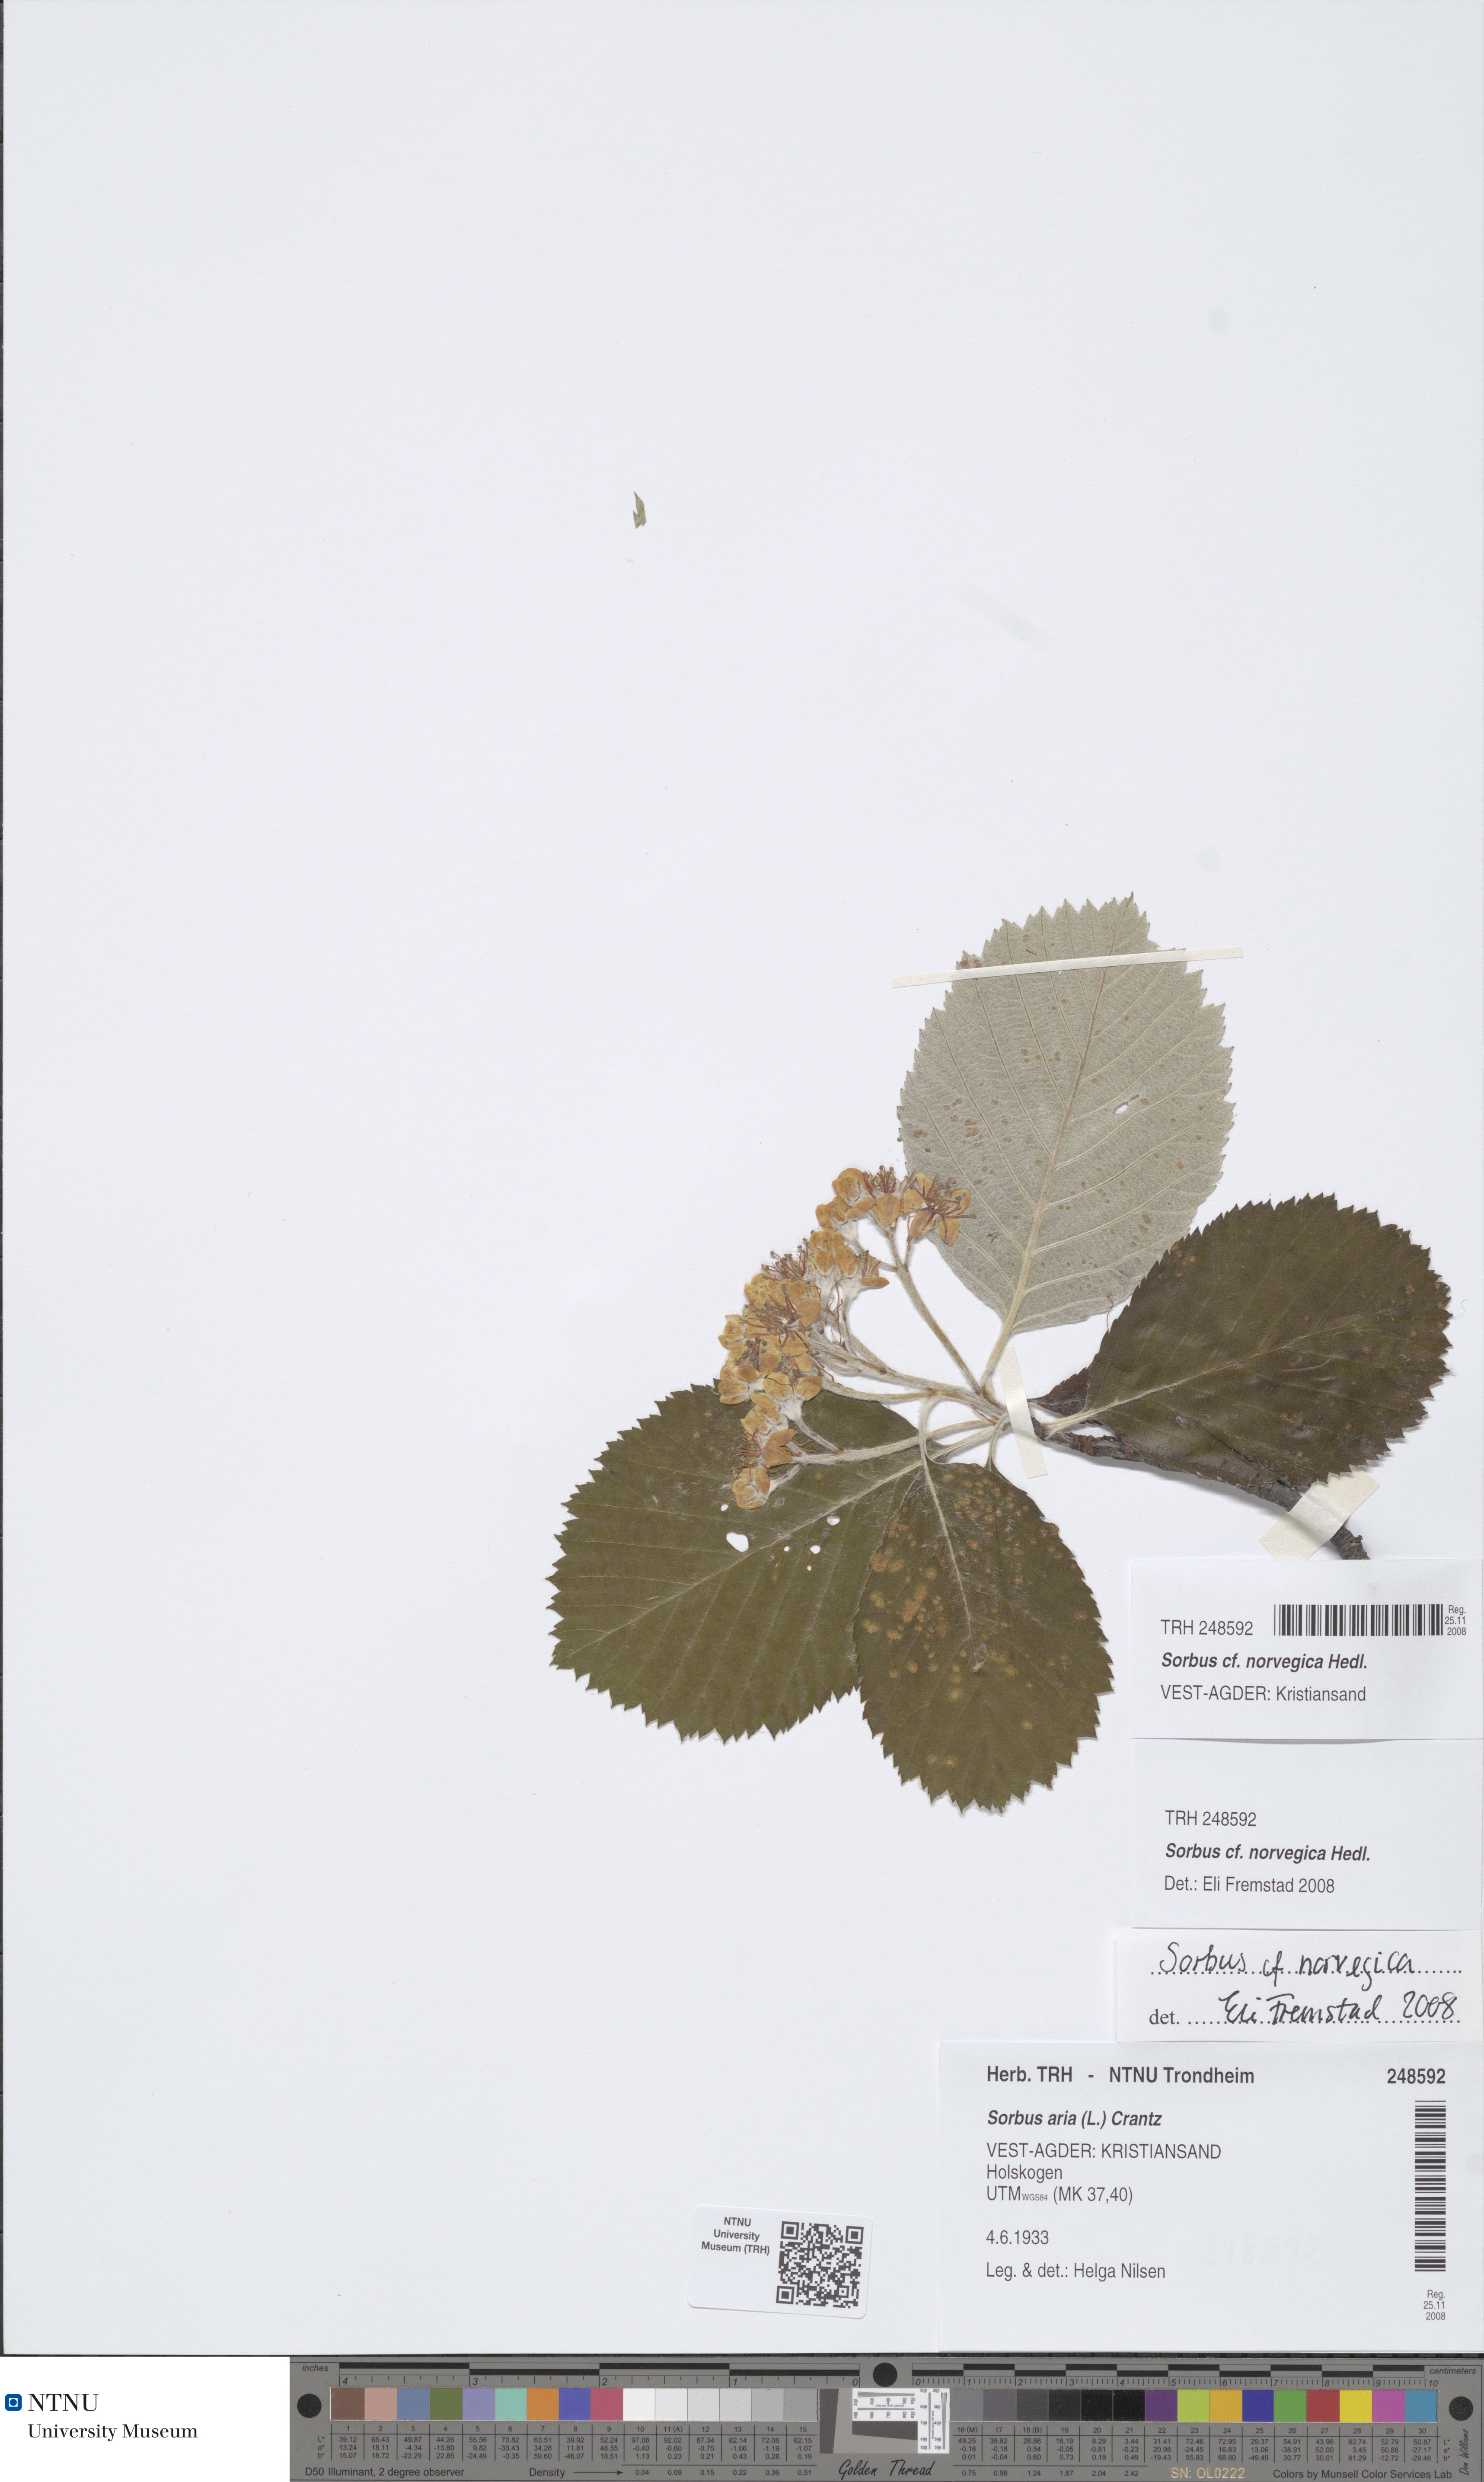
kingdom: Plantae
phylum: Tracheophyta
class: Magnoliopsida
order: Rosales
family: Rosaceae
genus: Aria
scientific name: Aria obtusifolia
